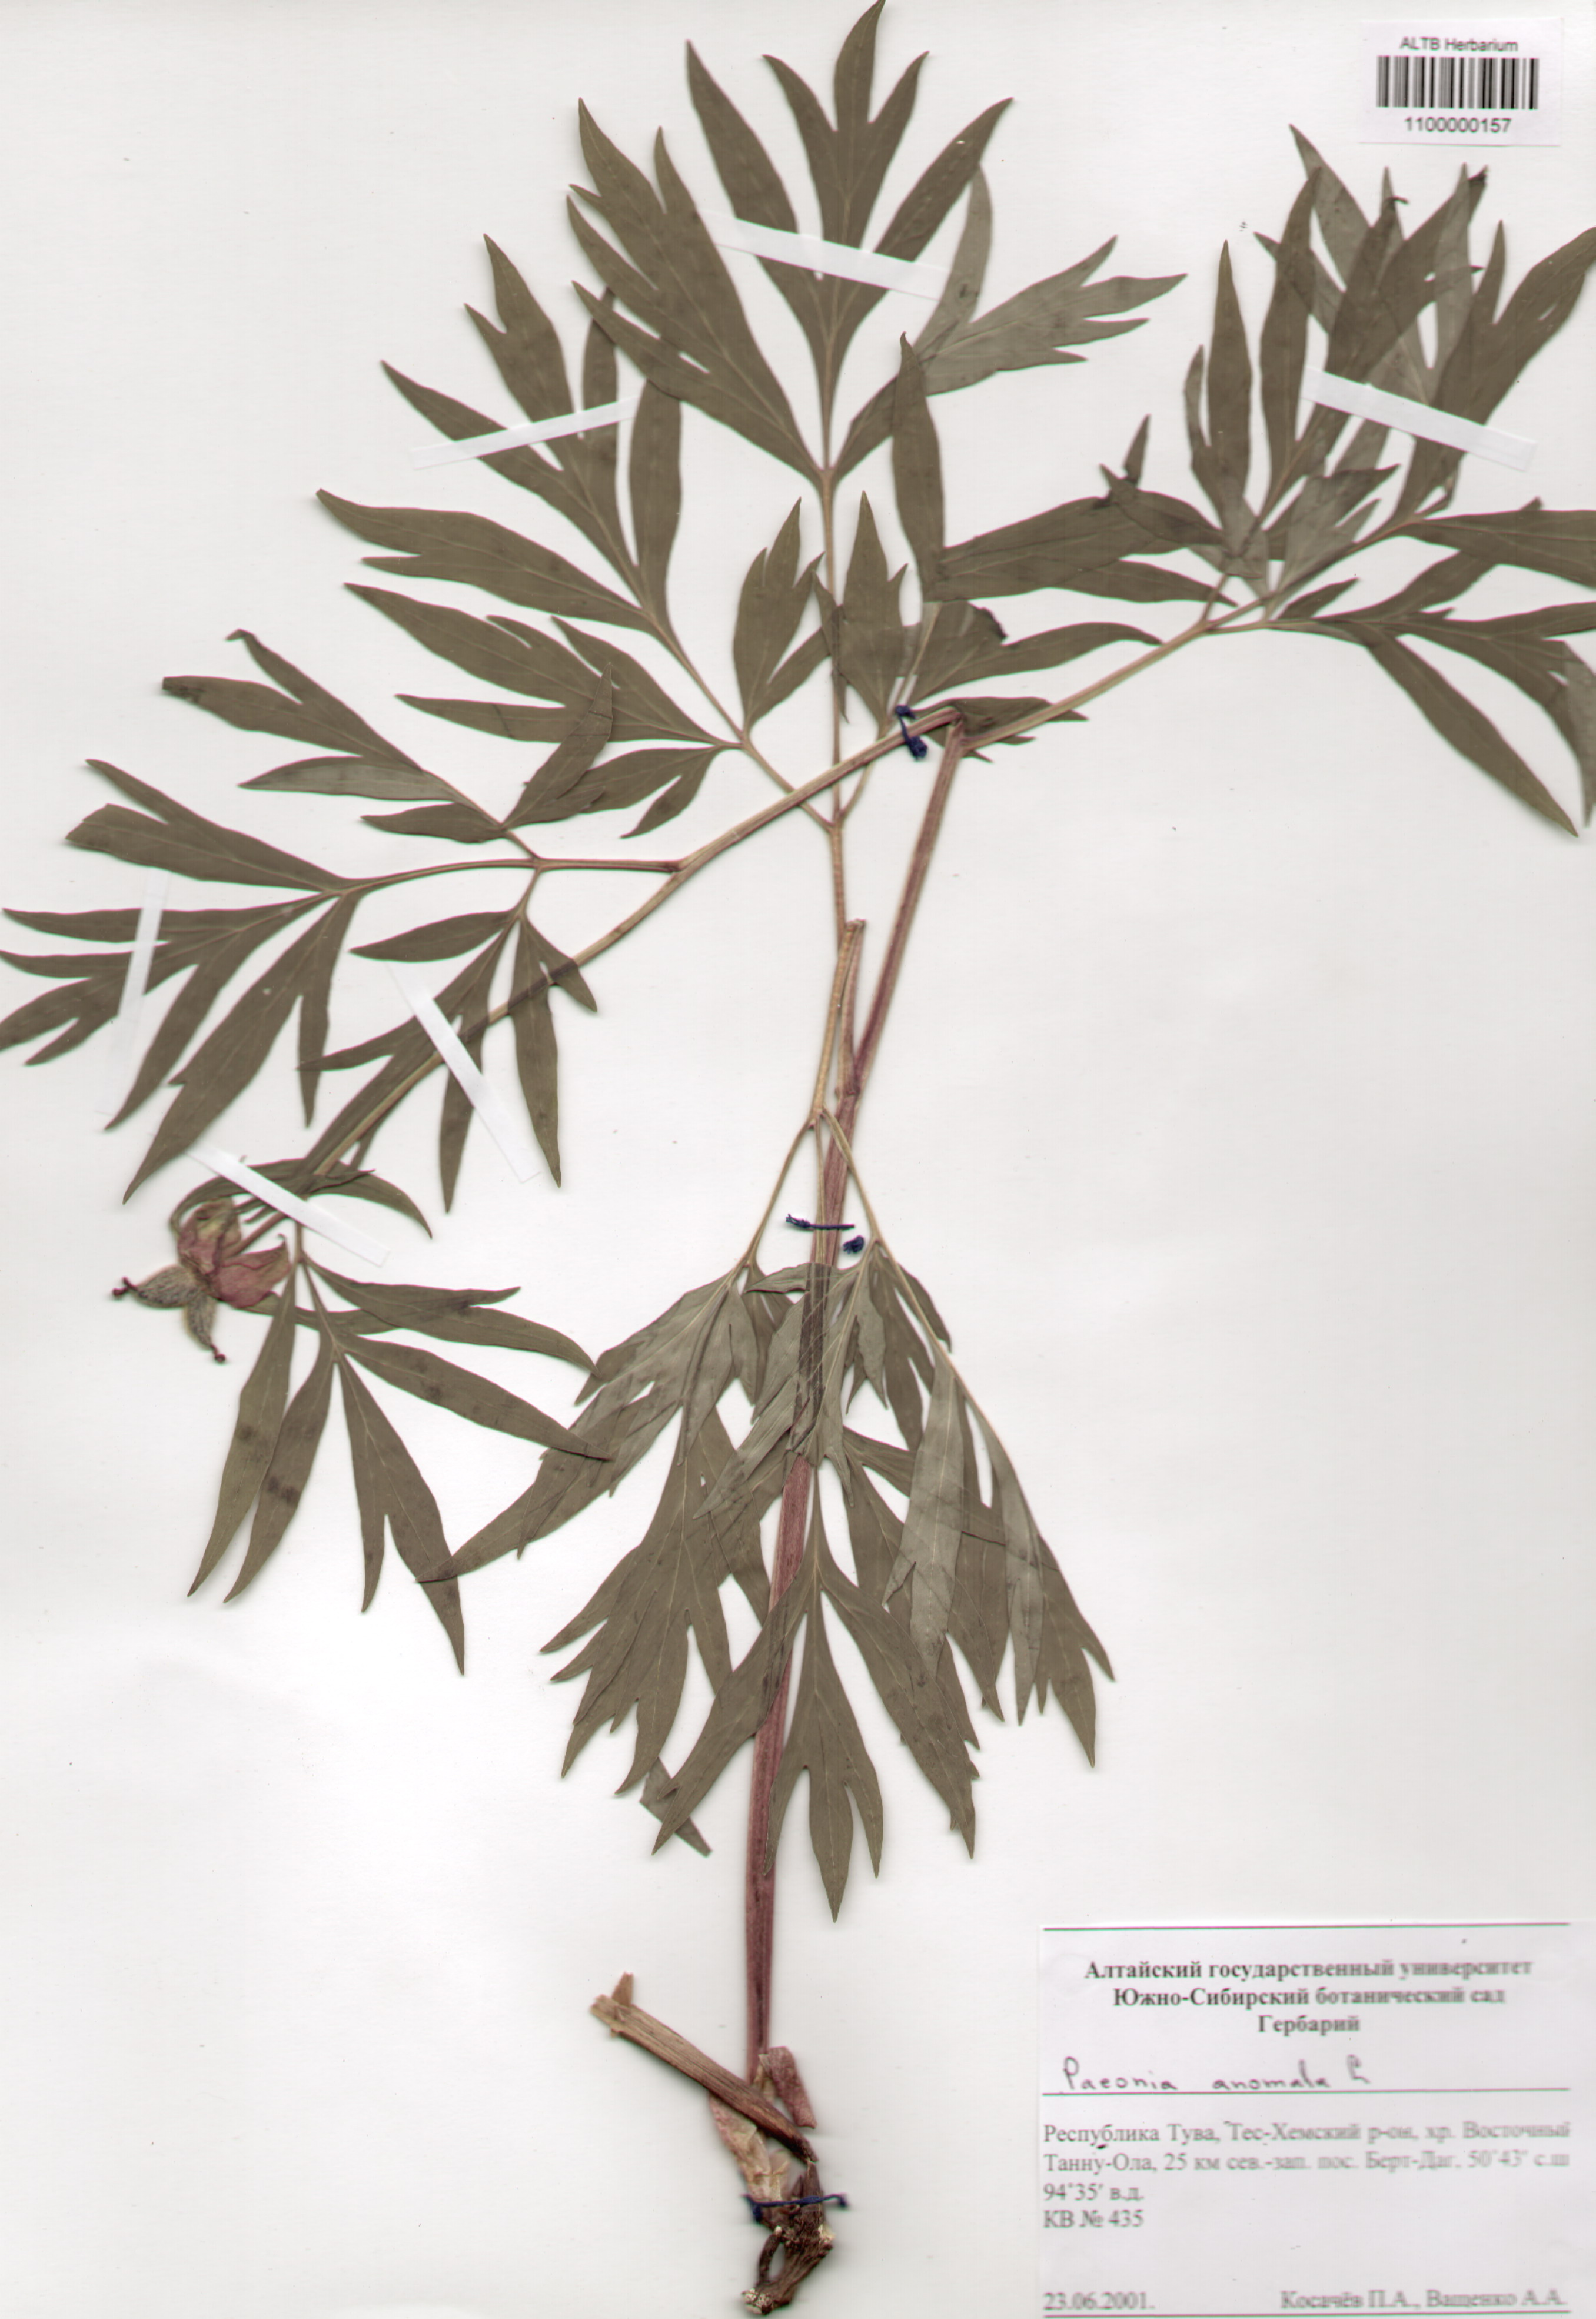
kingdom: Plantae
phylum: Tracheophyta
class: Magnoliopsida
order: Saxifragales
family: Paeoniaceae
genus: Paeonia
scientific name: Paeonia anomala
